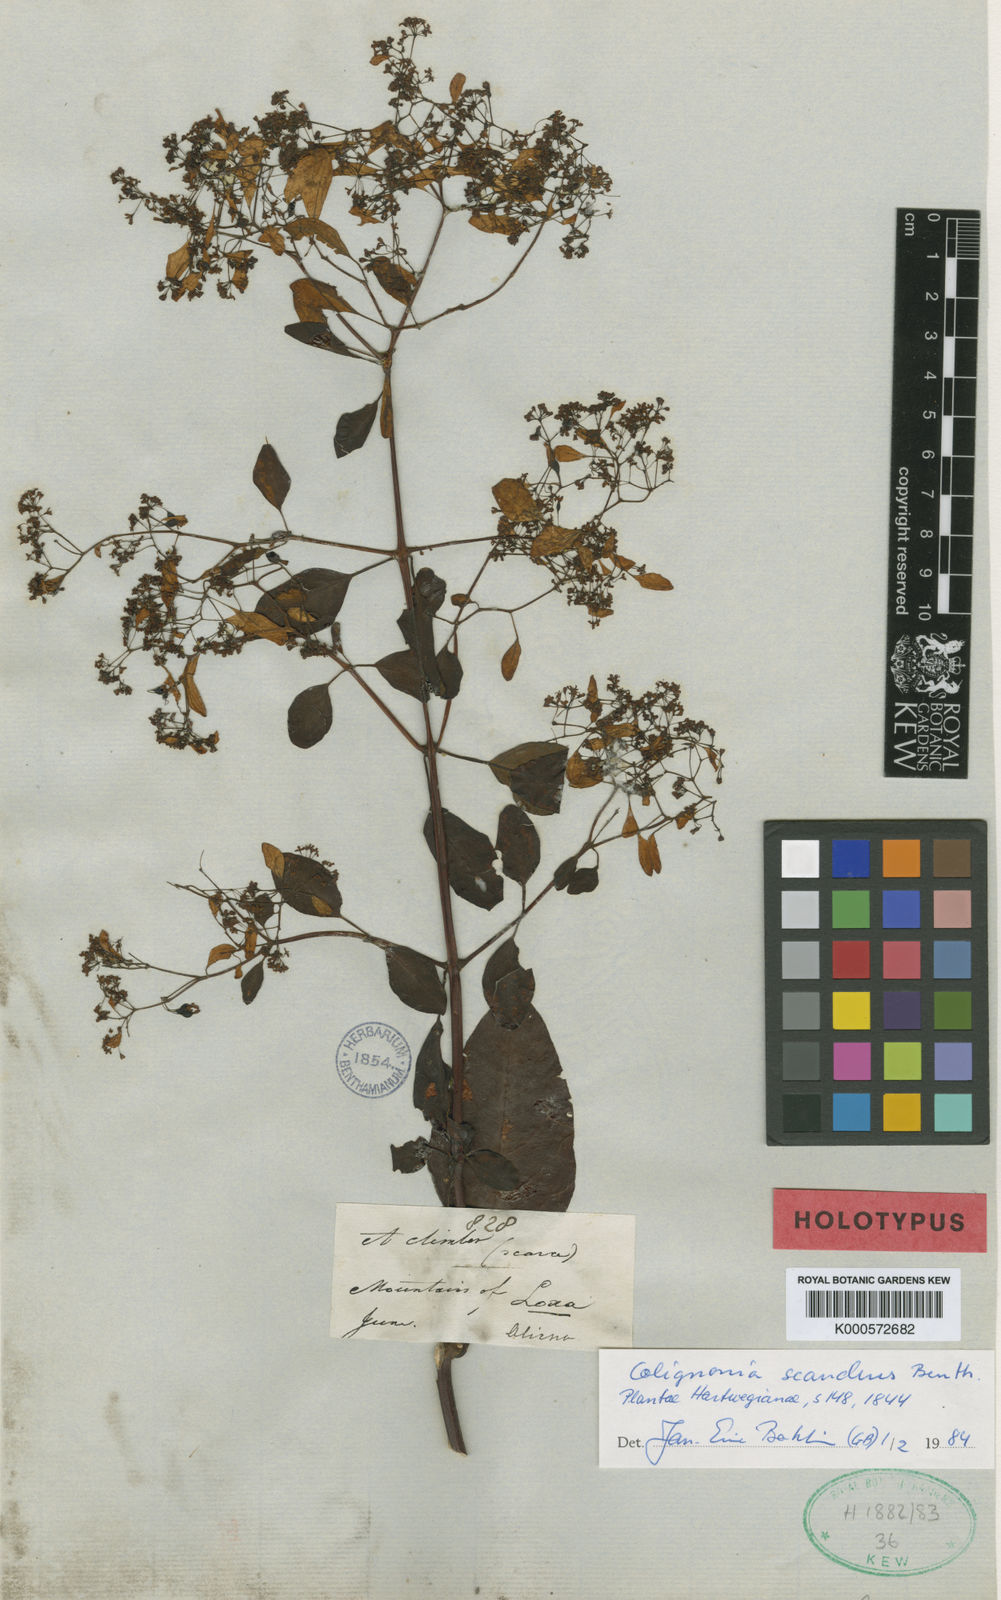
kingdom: Plantae
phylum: Tracheophyta
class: Magnoliopsida
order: Caryophyllales
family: Nyctaginaceae
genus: Colignonia
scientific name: Colignonia scandens
